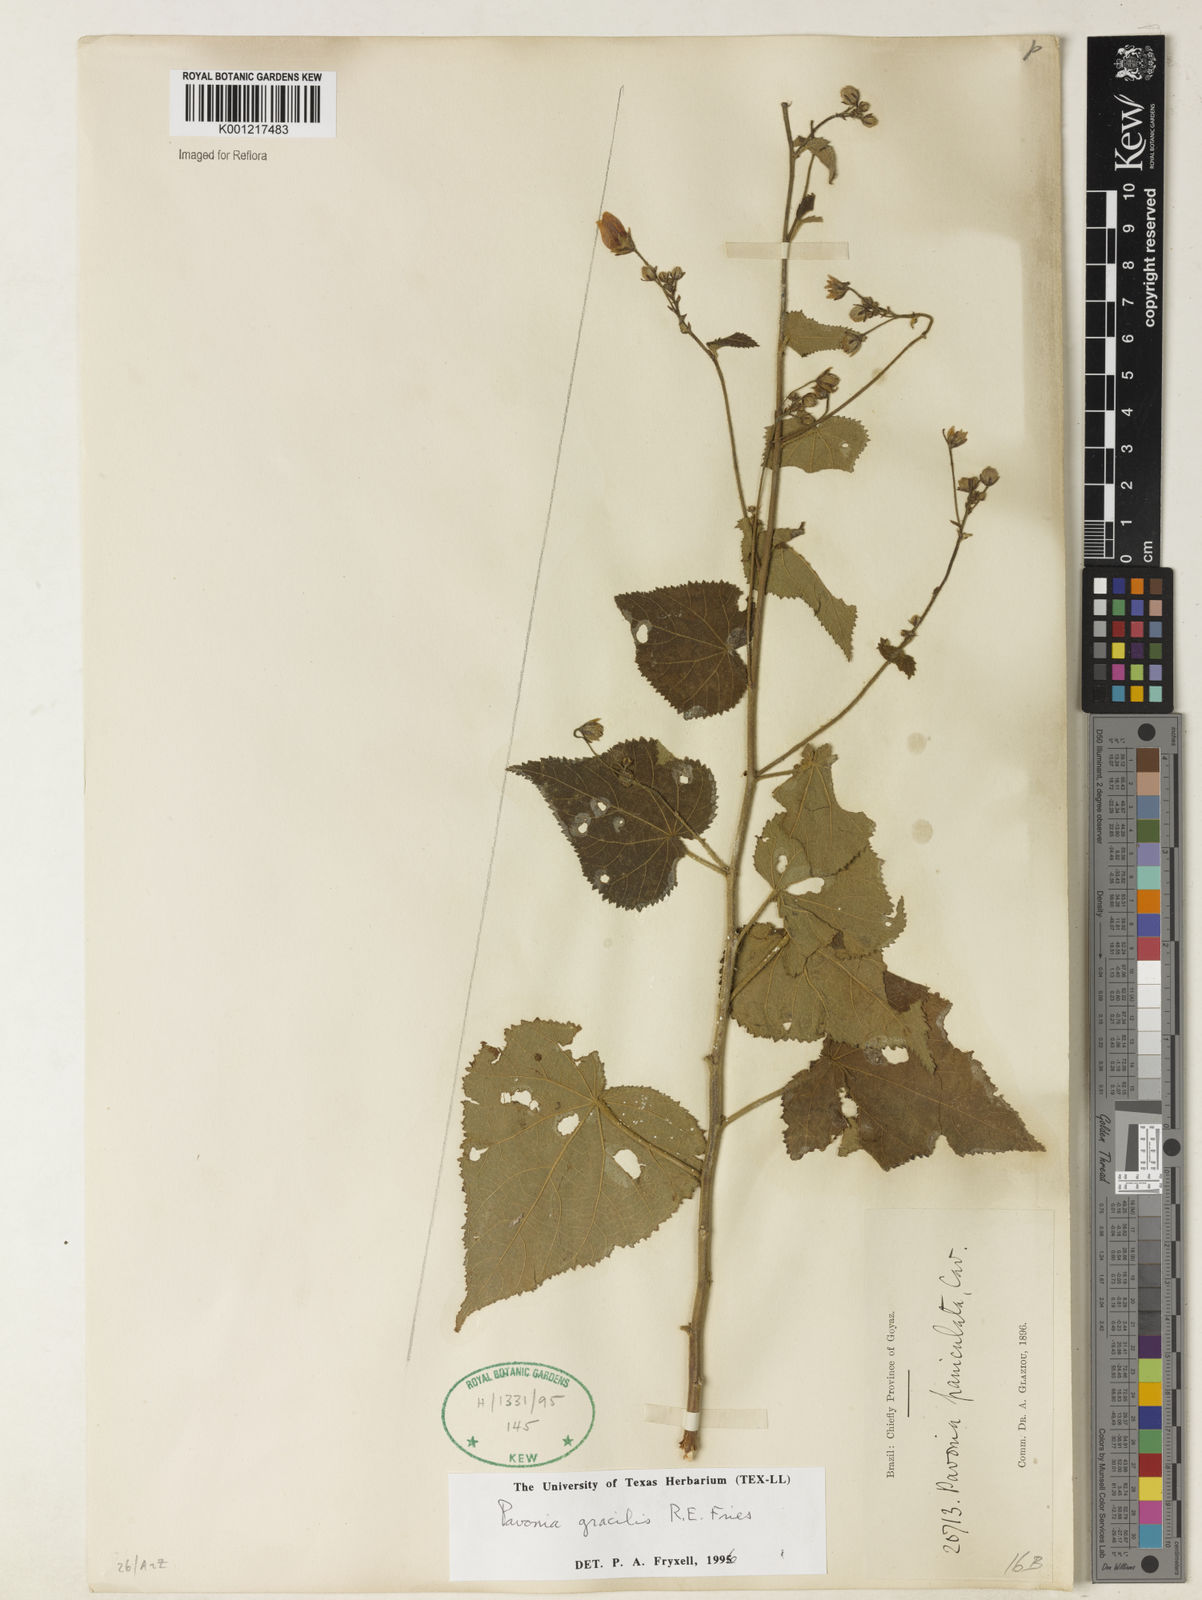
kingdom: Plantae
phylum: Tracheophyta
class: Magnoliopsida
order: Malvales
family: Malvaceae
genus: Pavonia
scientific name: Pavonia gracilis
